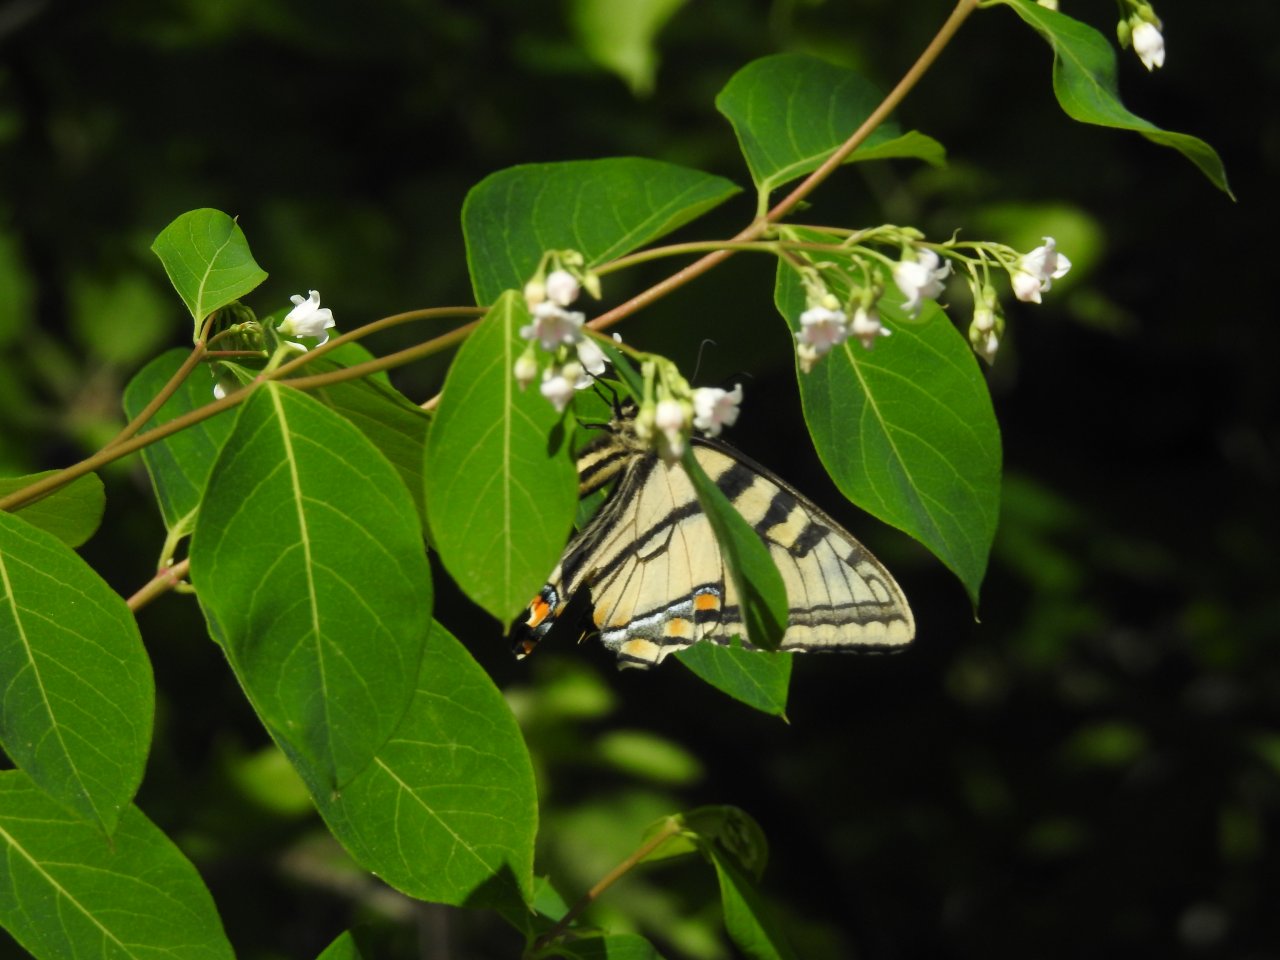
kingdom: Animalia
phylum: Arthropoda
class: Insecta
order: Lepidoptera
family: Papilionidae
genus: Pterourus
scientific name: Pterourus canadensis
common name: Canadian Tiger Swallowtail
